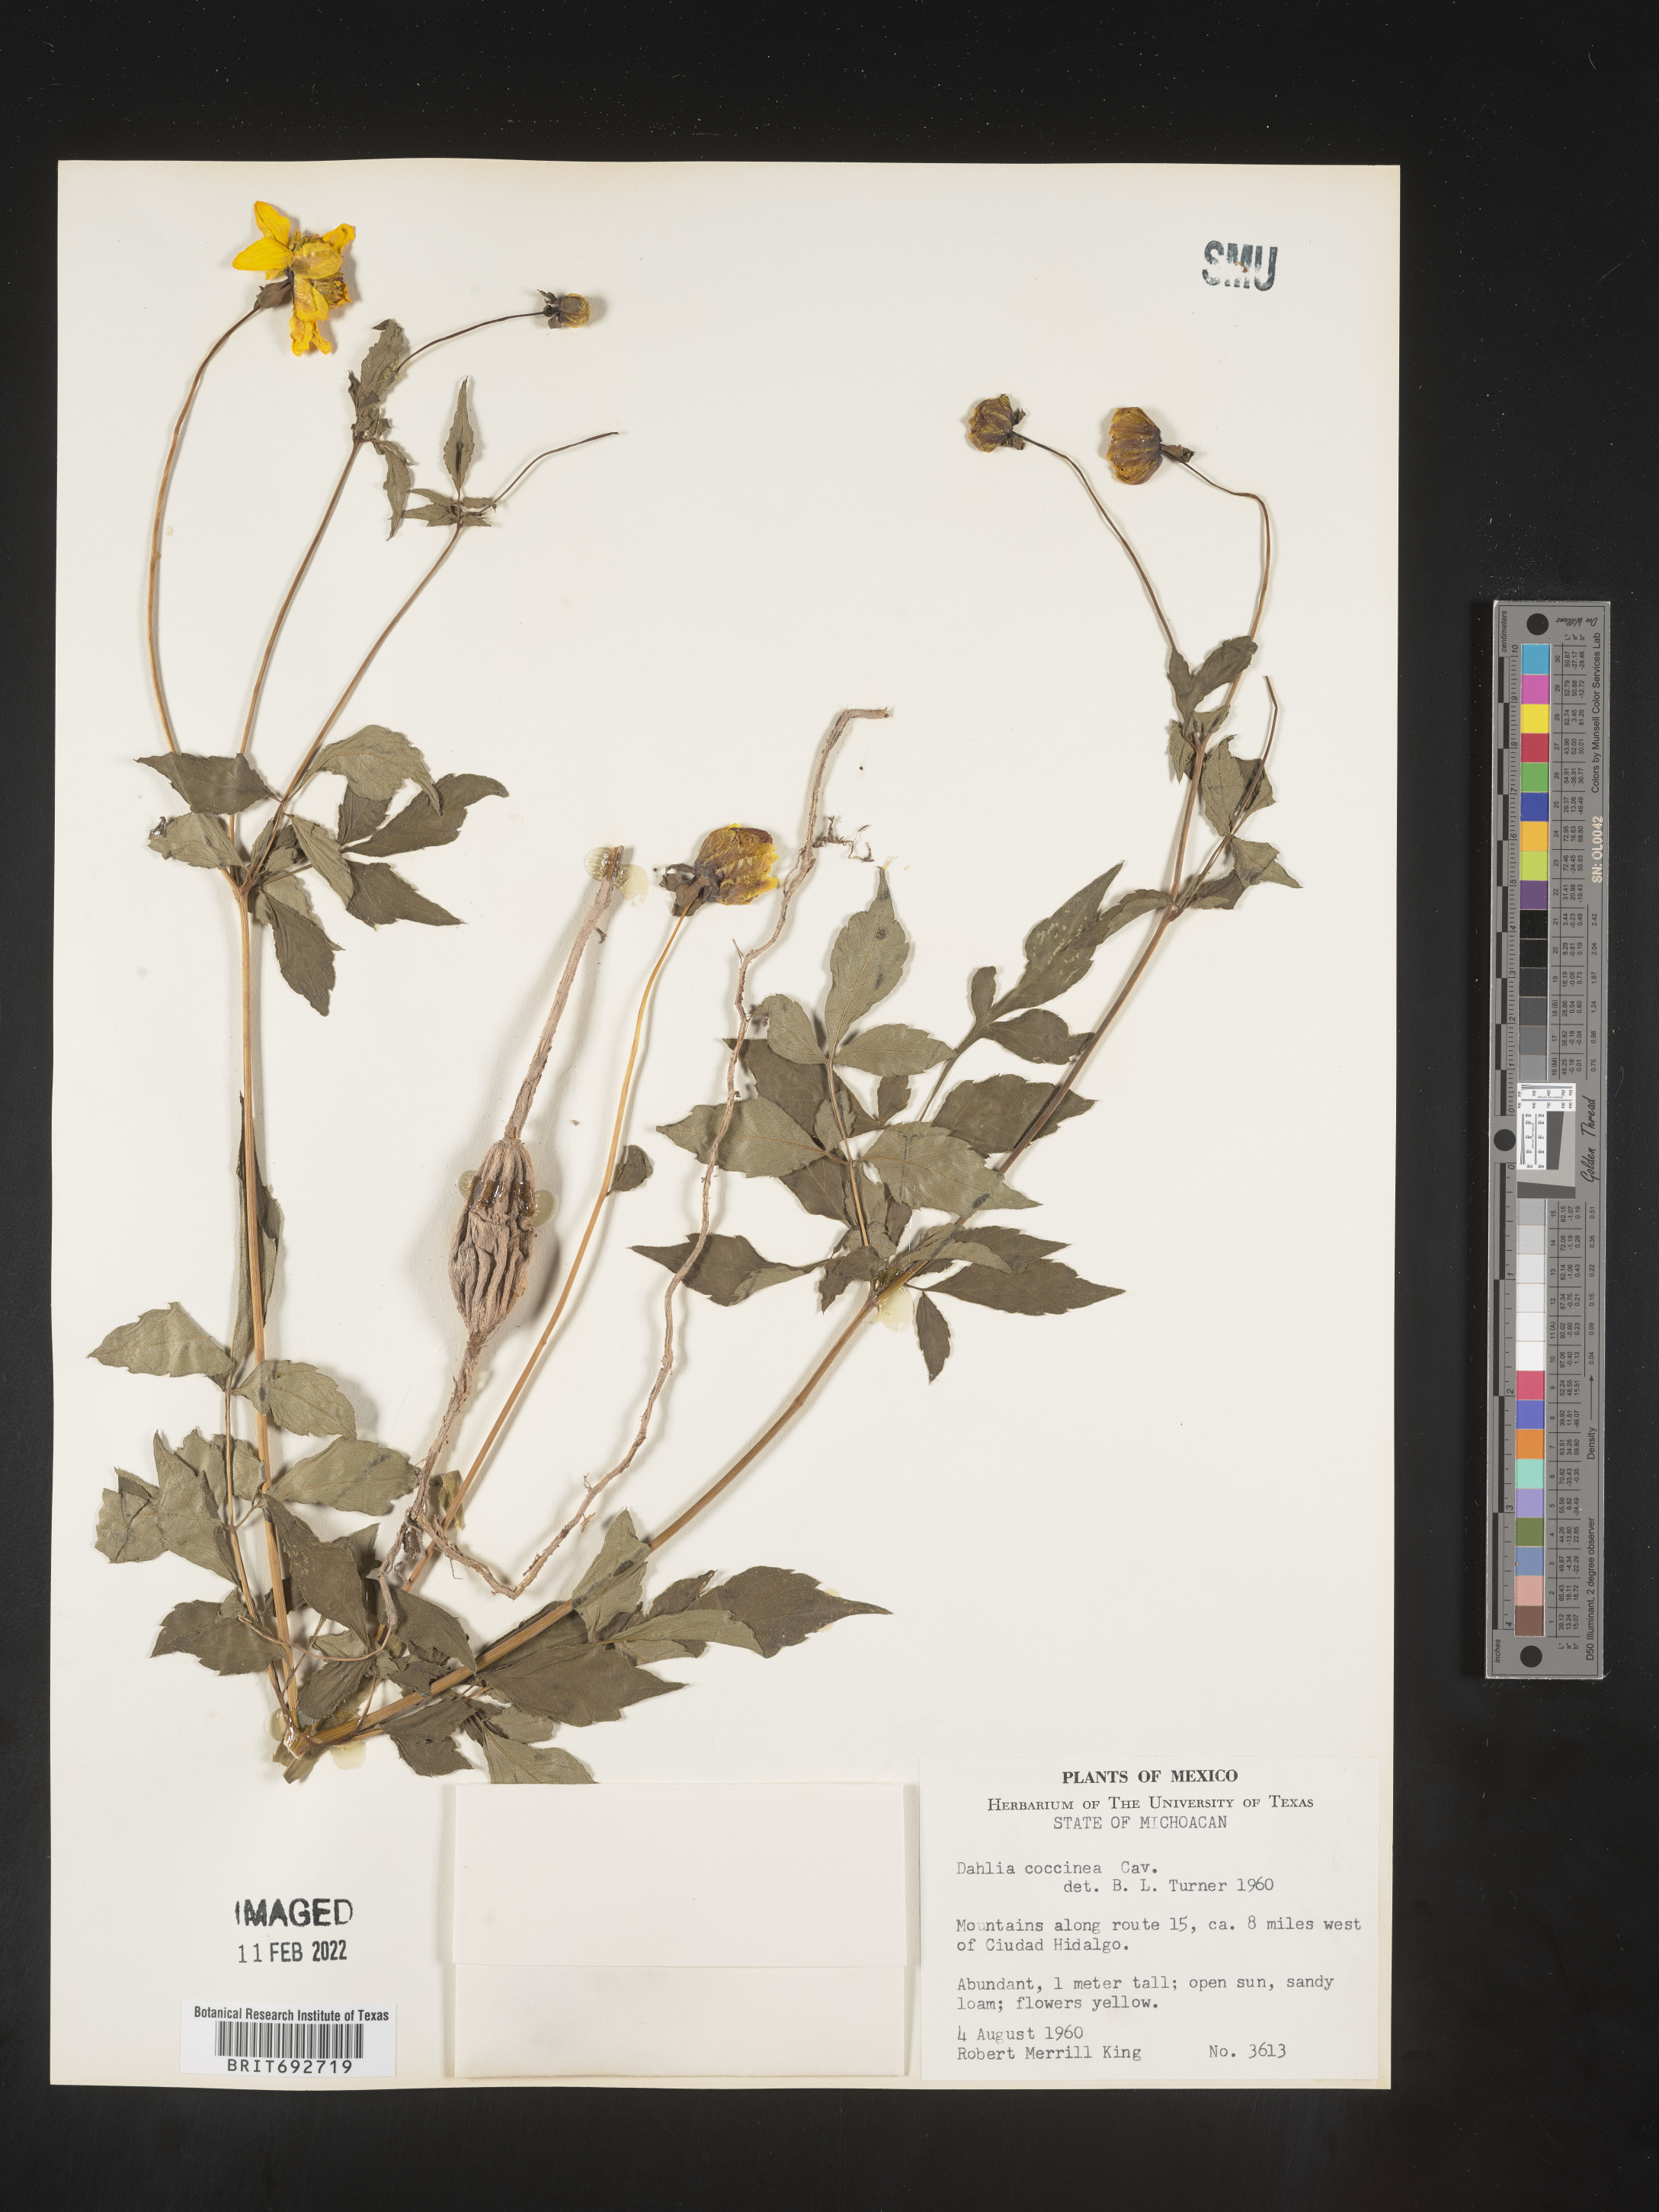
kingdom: Plantae
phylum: Tracheophyta
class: Magnoliopsida
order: Asterales
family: Asteraceae
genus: Dahlia
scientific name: Dahlia
